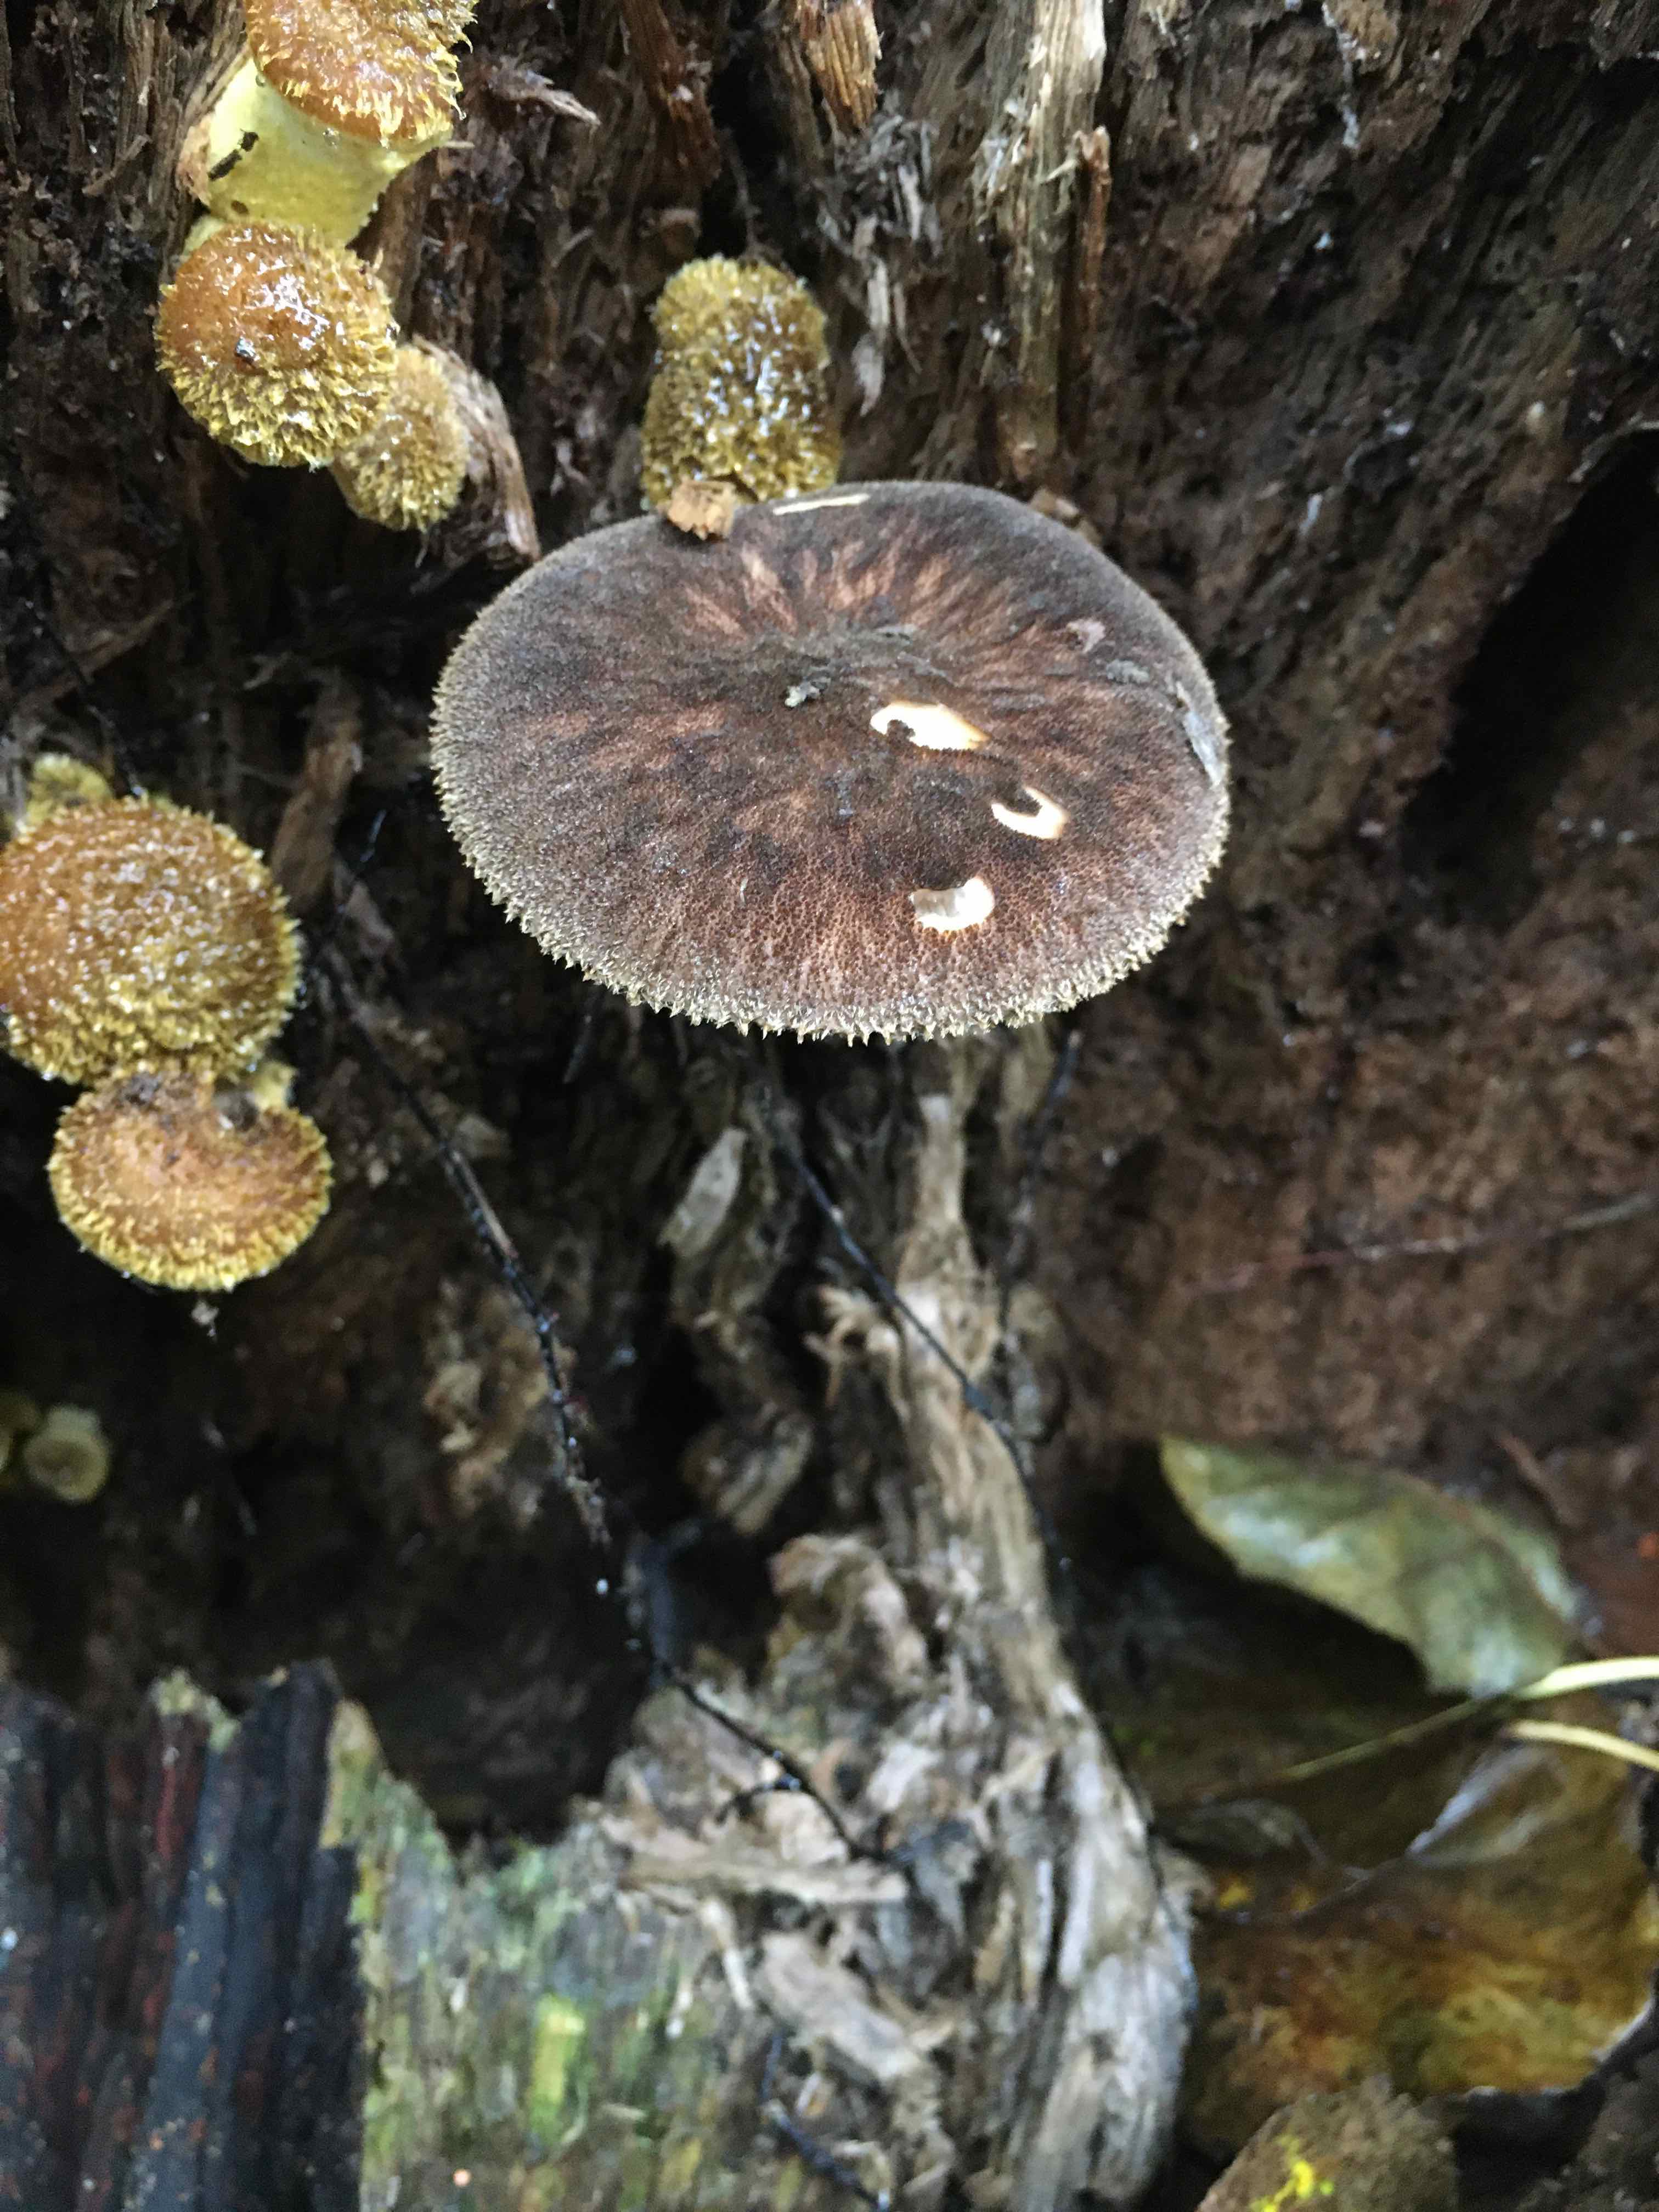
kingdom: Fungi
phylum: Basidiomycota
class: Agaricomycetes
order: Agaricales
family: Pluteaceae
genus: Pluteus
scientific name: Pluteus umbrosus
